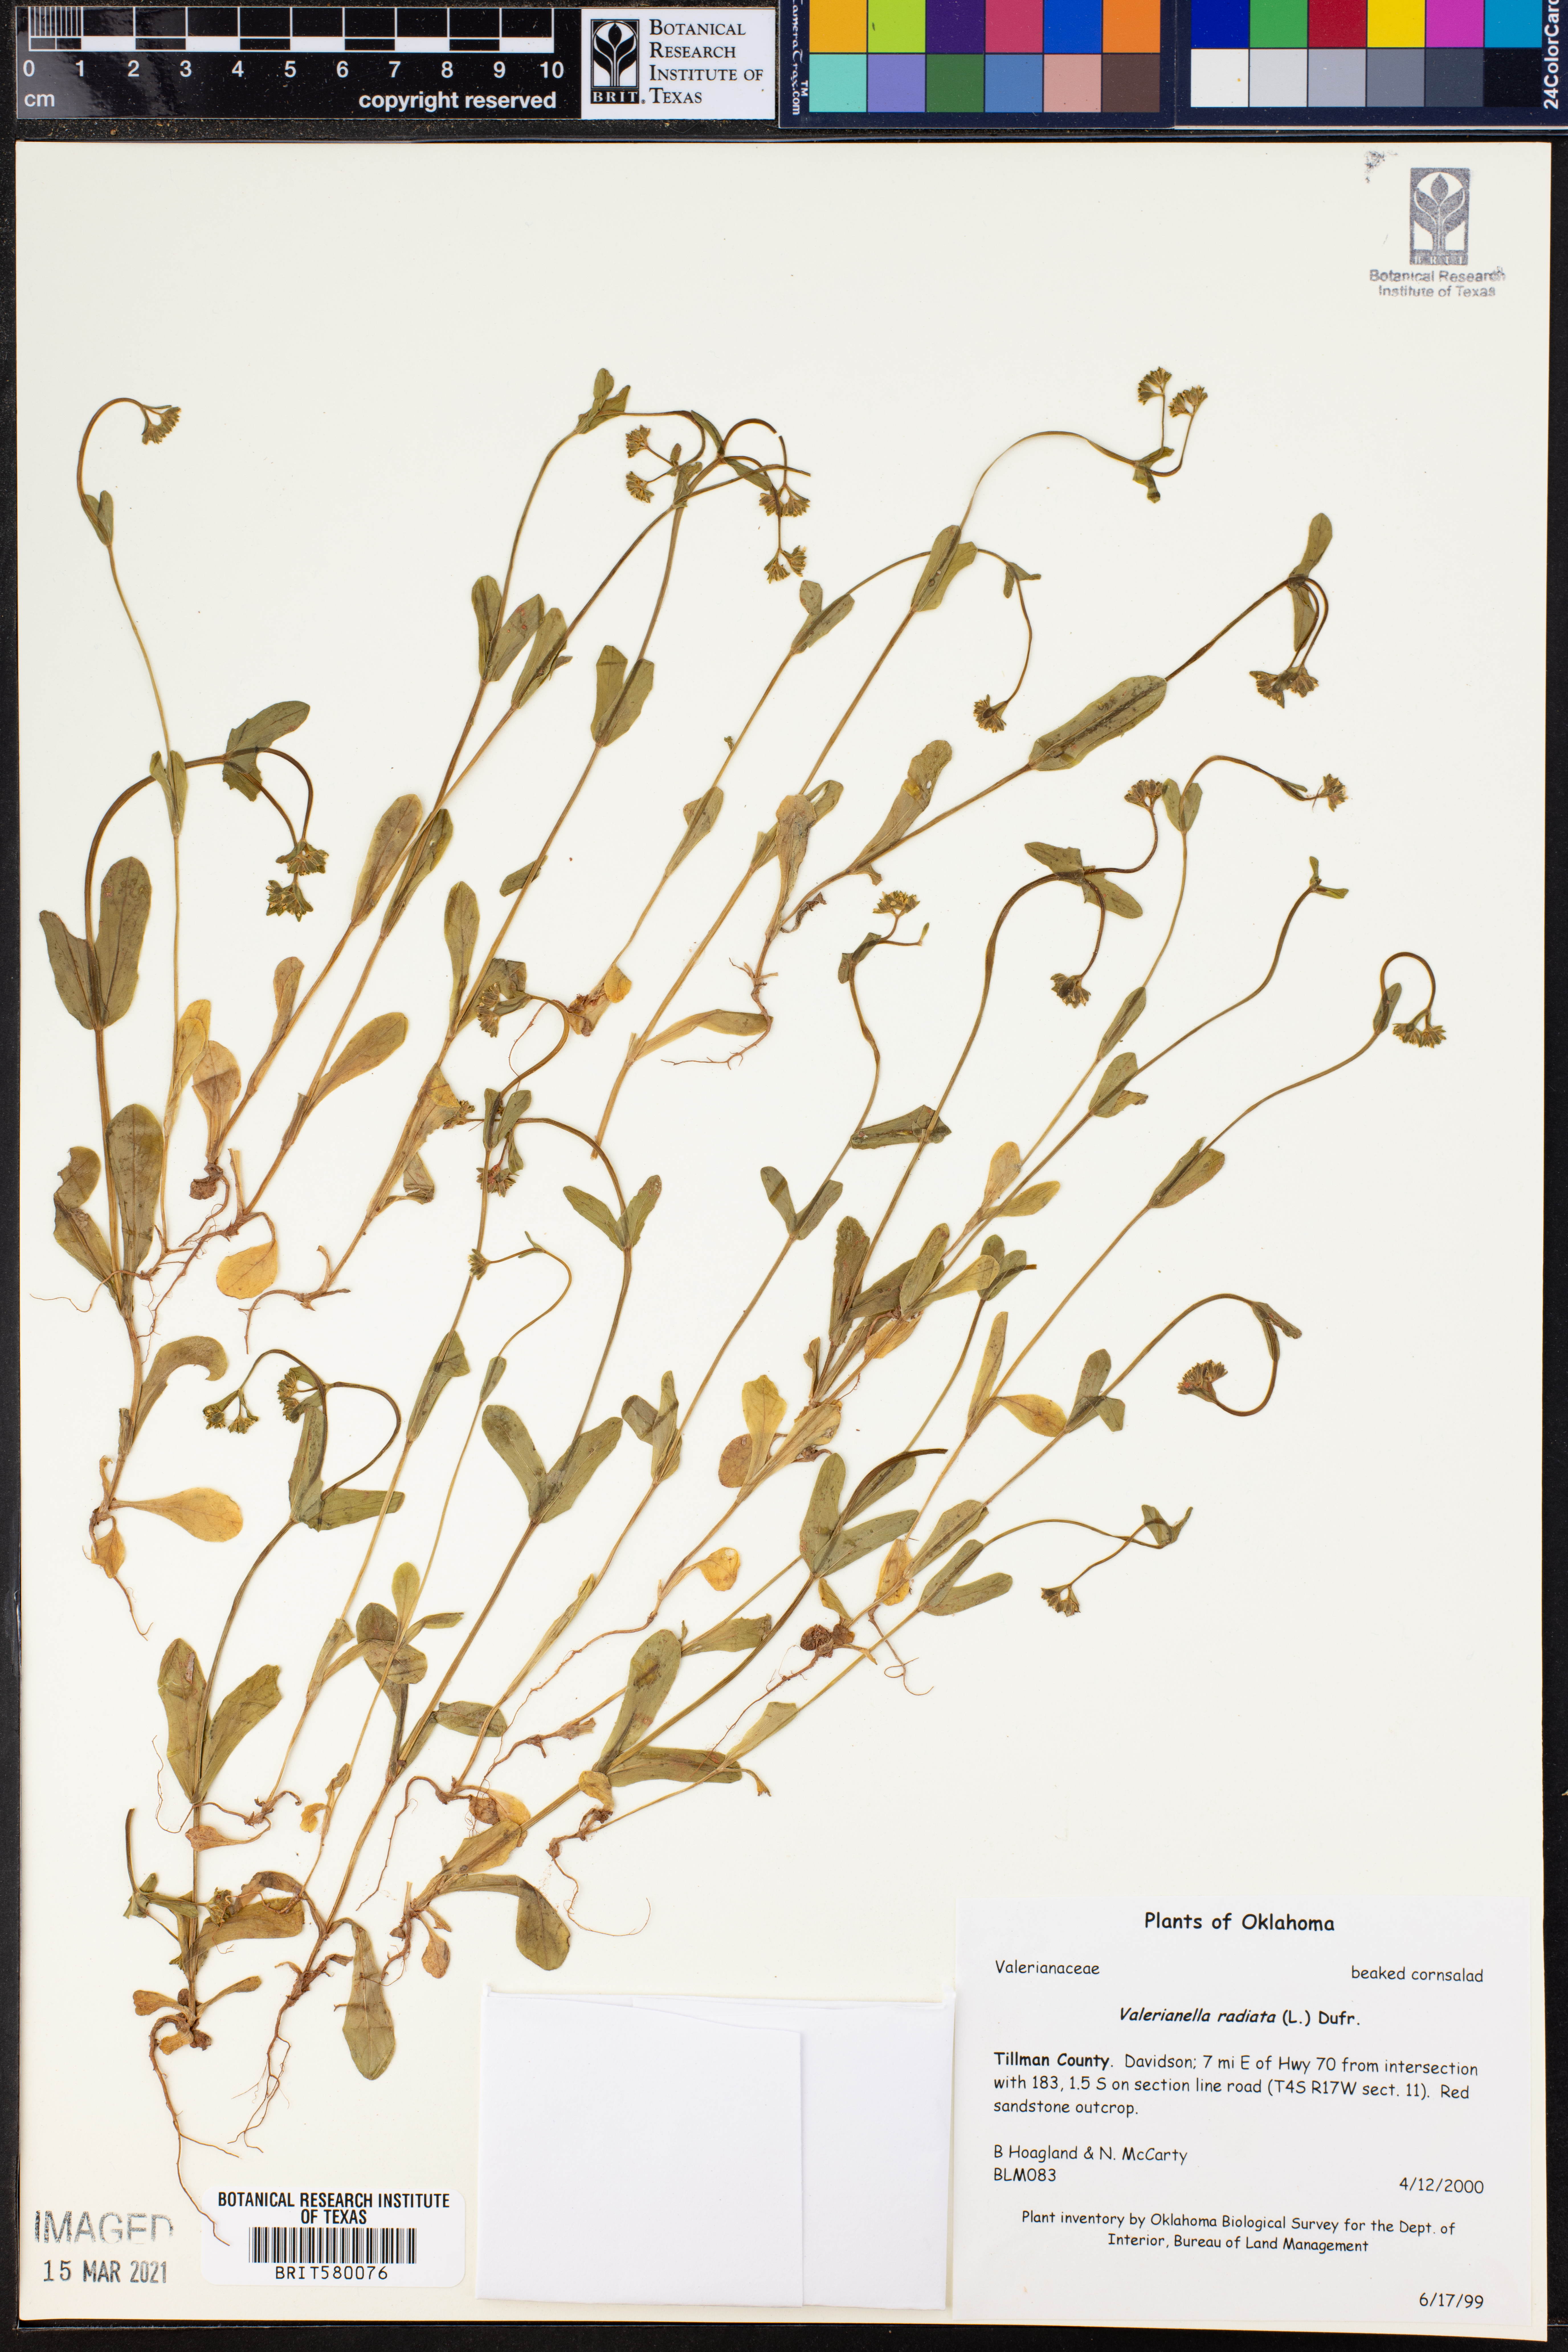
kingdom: Plantae
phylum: Tracheophyta
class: Magnoliopsida
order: Dipsacales
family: Caprifoliaceae
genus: Valerianella
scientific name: Valerianella radiata
